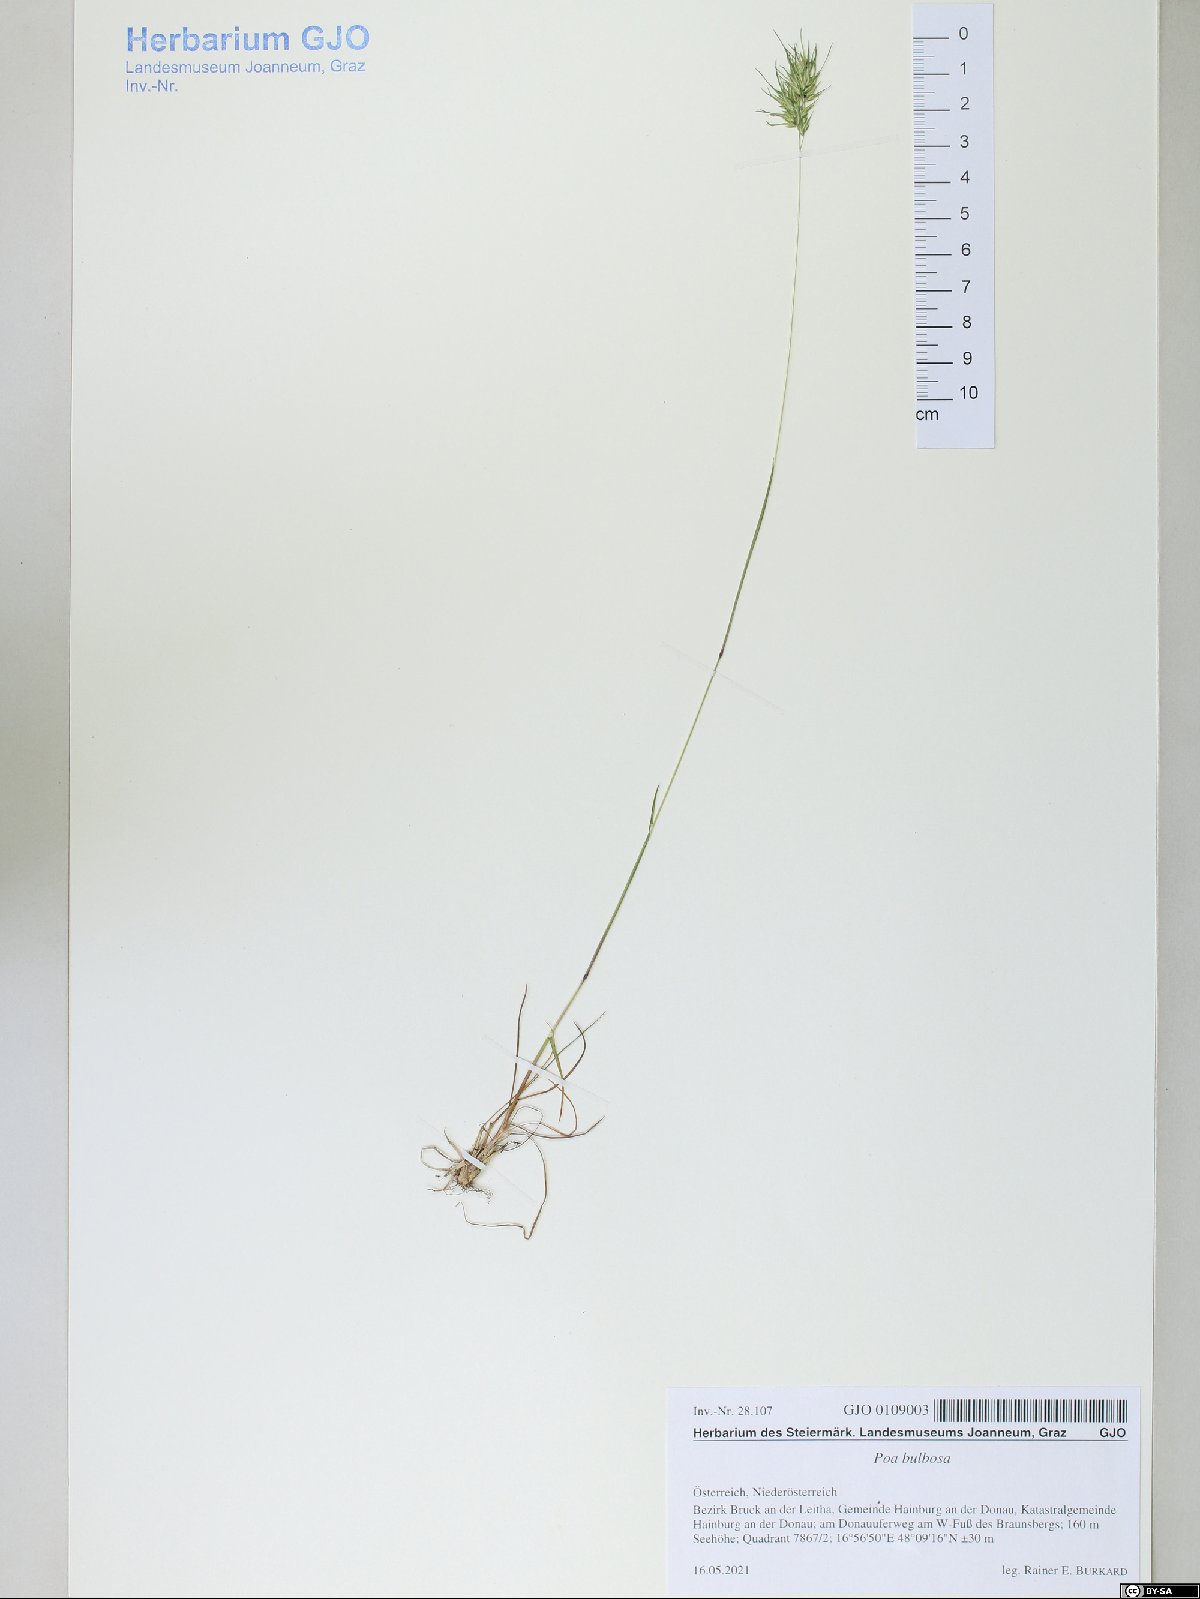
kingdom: Plantae
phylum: Tracheophyta
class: Liliopsida
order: Poales
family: Poaceae
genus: Poa
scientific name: Poa bulbosa
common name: Bulbous bluegrass
